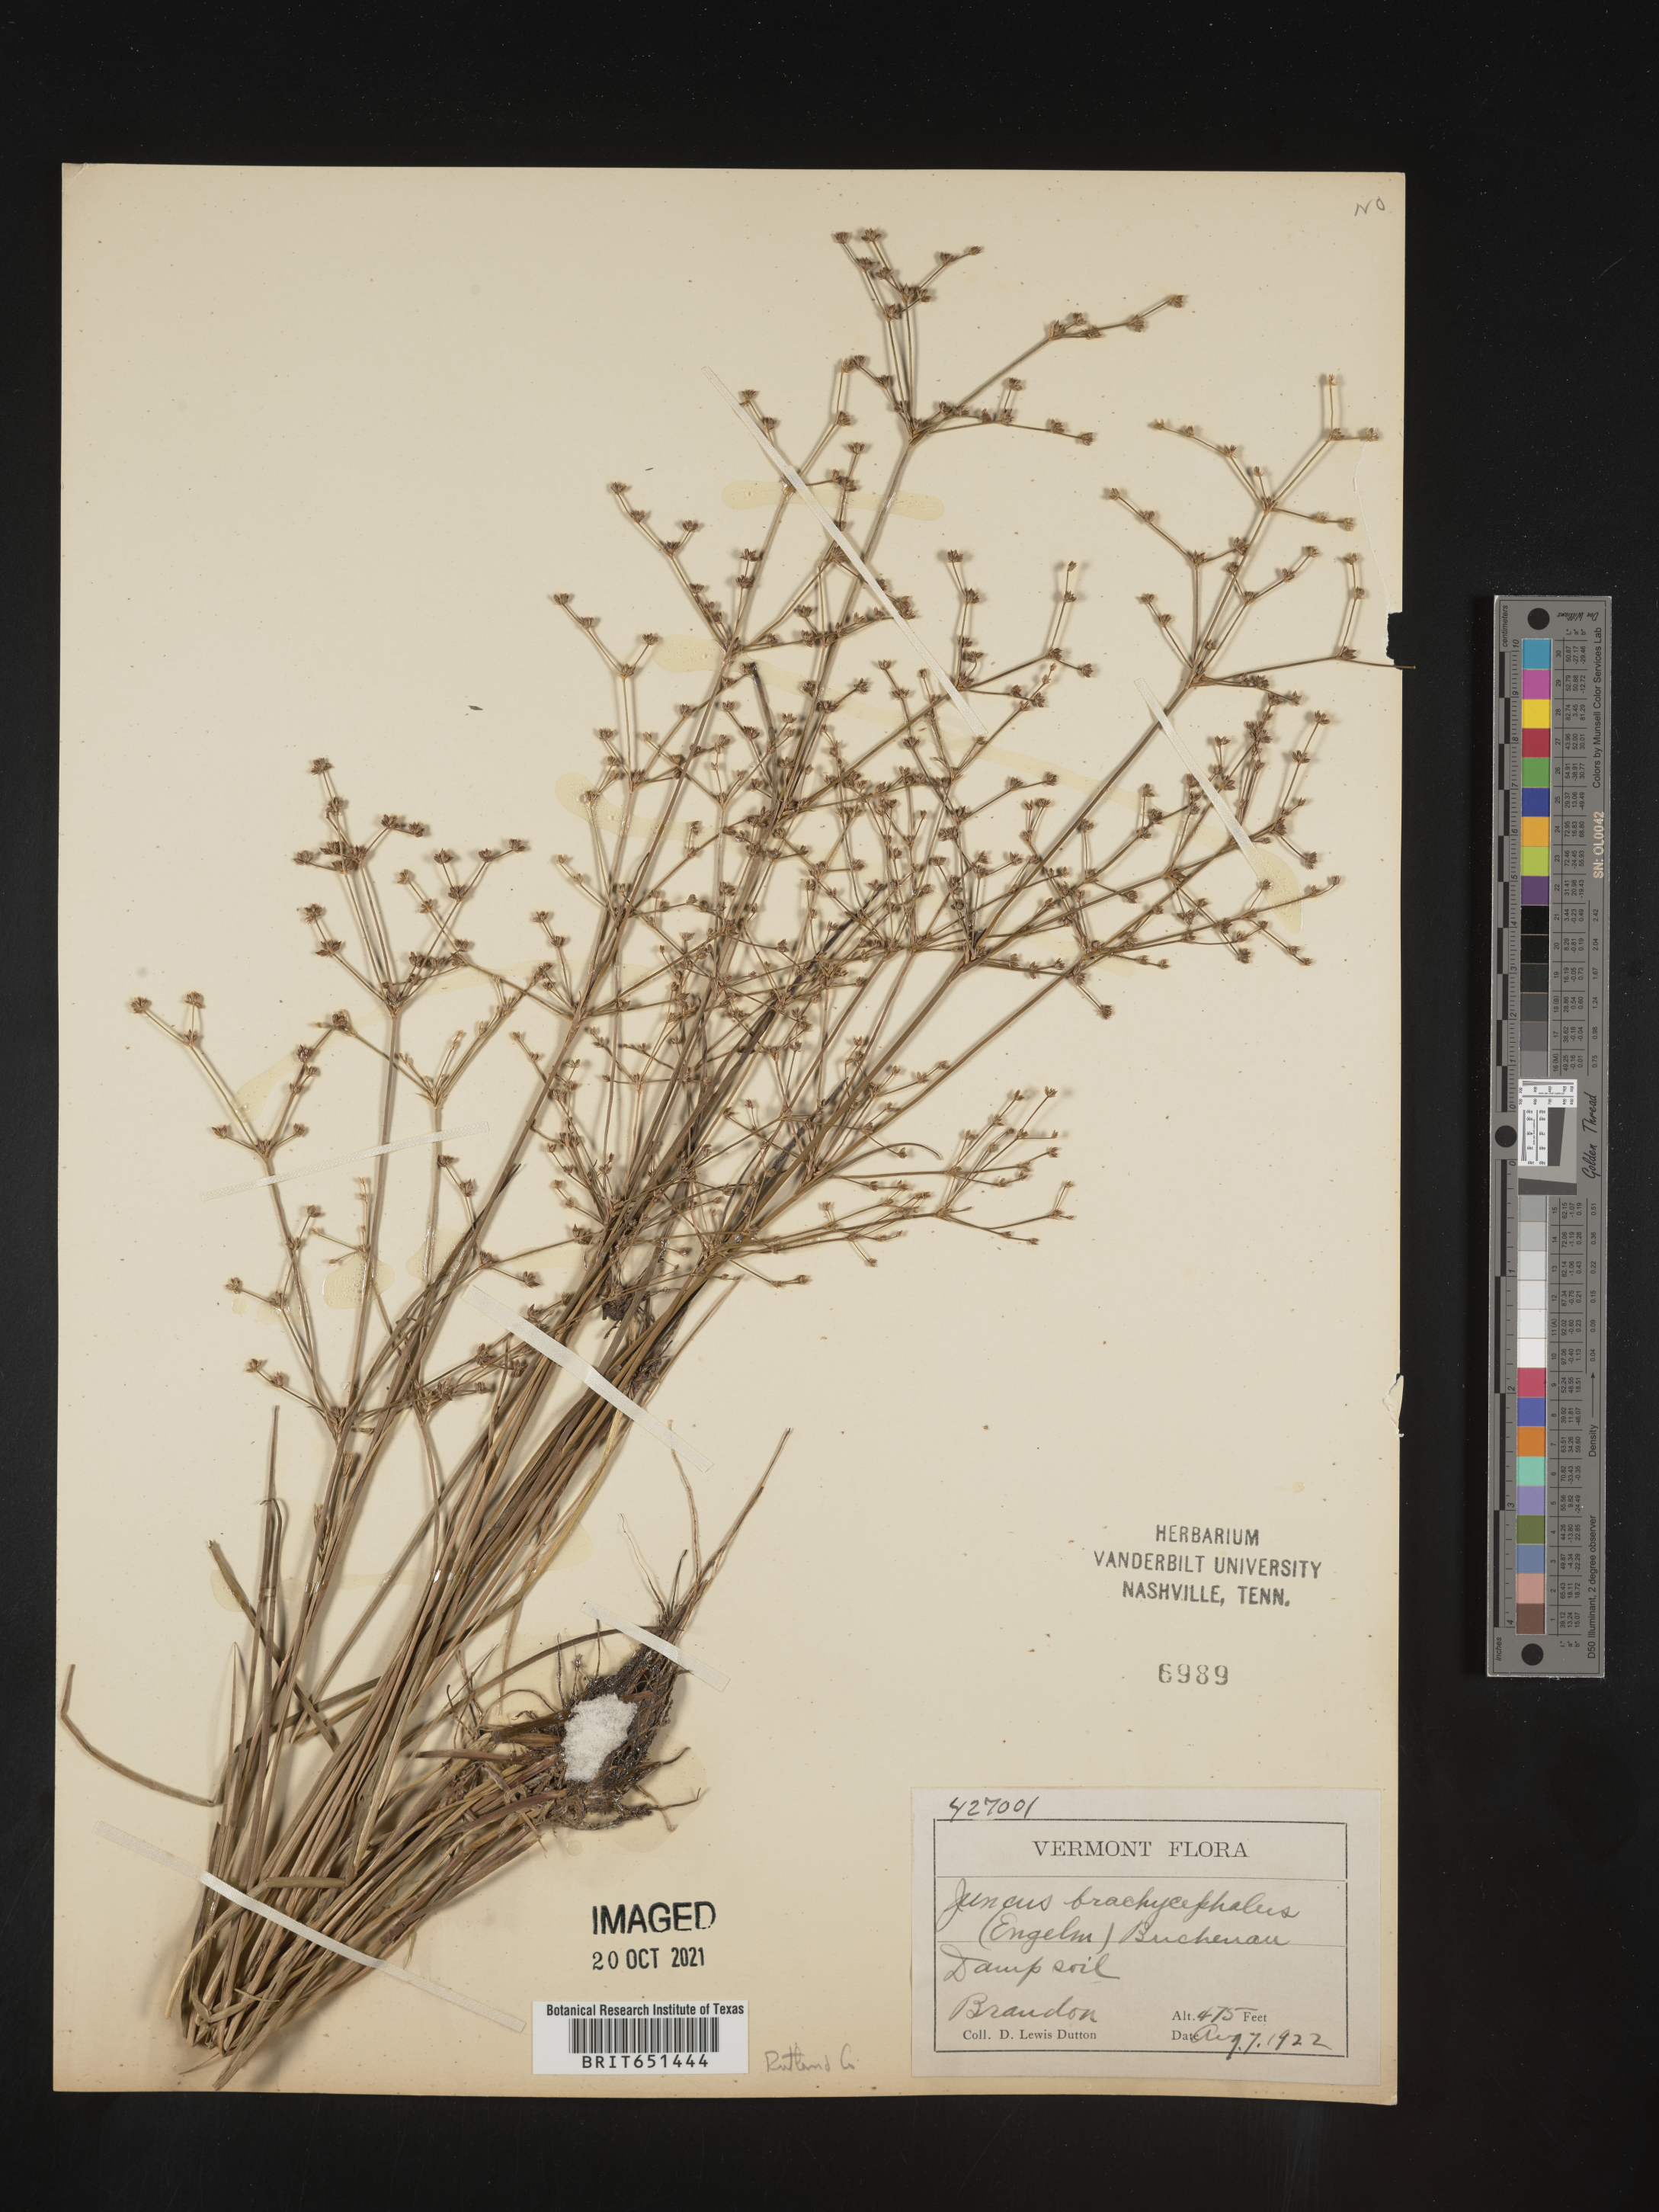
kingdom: Plantae
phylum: Tracheophyta
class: Liliopsida
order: Poales
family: Juncaceae
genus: Juncus
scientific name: Juncus brachycephalus
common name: Short-headed rush
